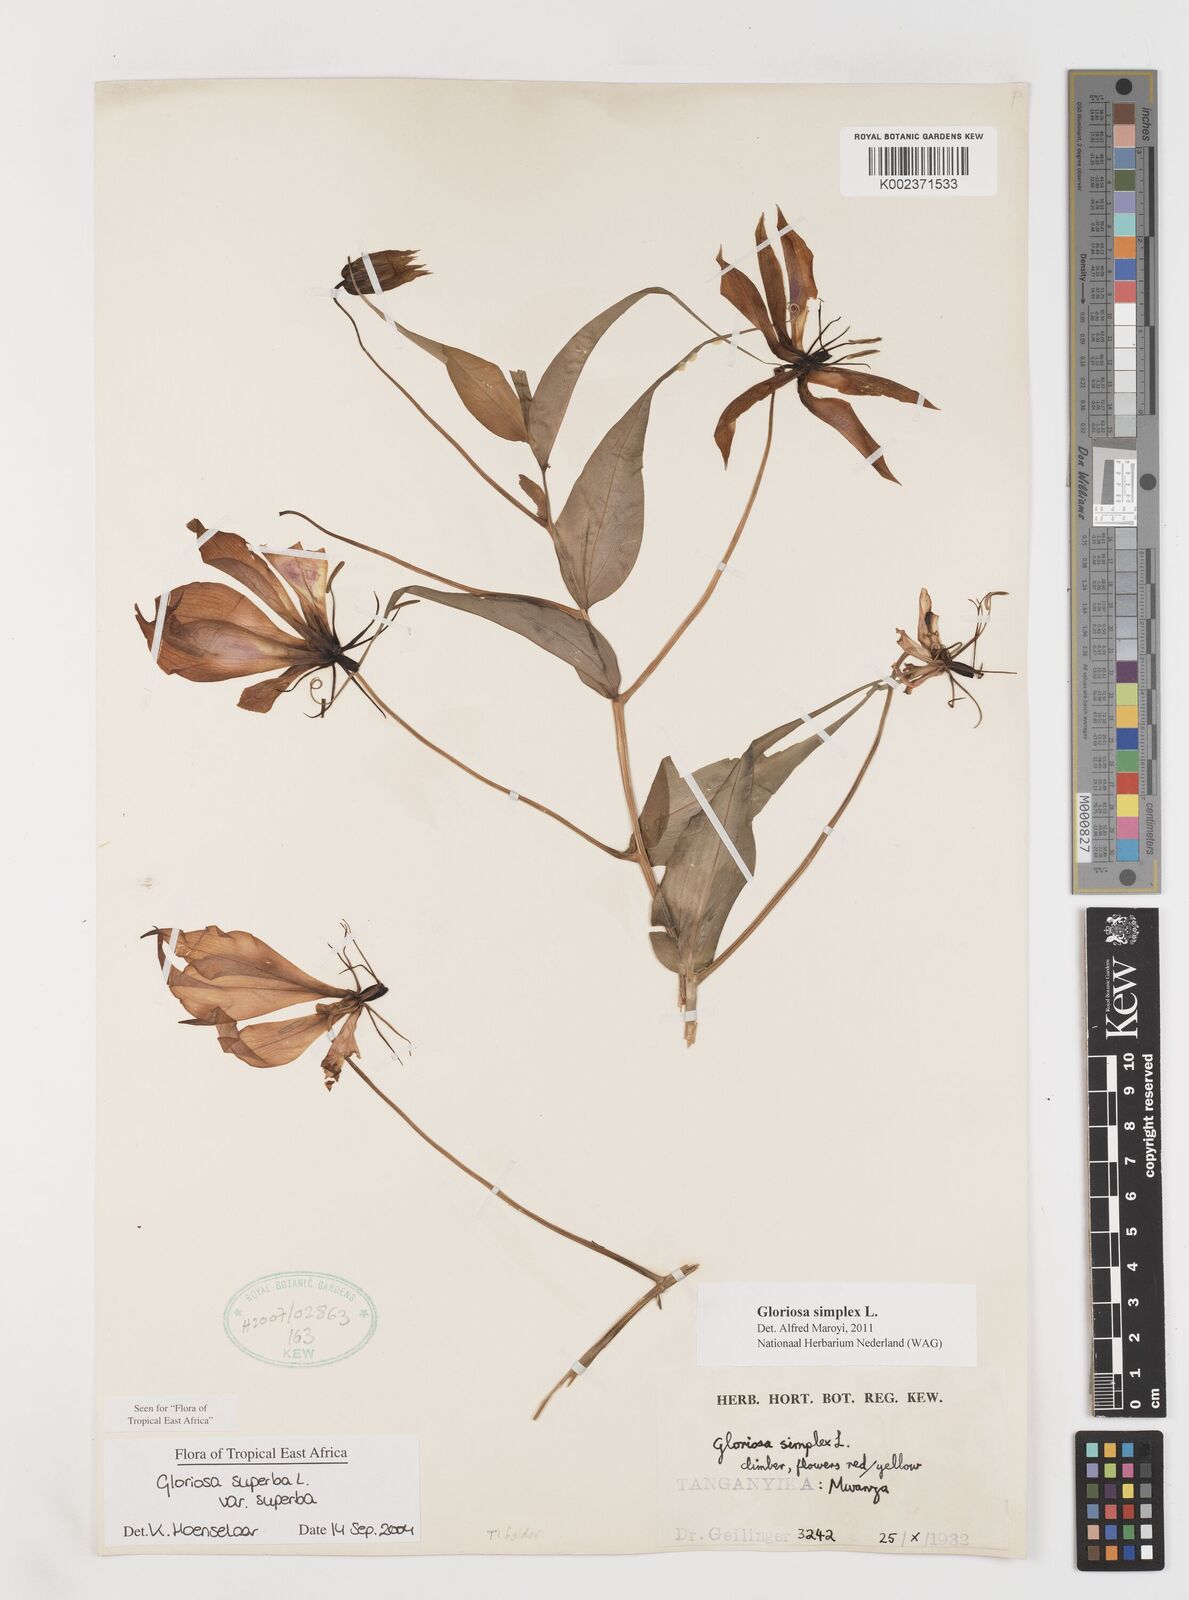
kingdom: Plantae
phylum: Tracheophyta
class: Liliopsida
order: Liliales
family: Colchicaceae
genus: Gloriosa
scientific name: Gloriosa simplex
